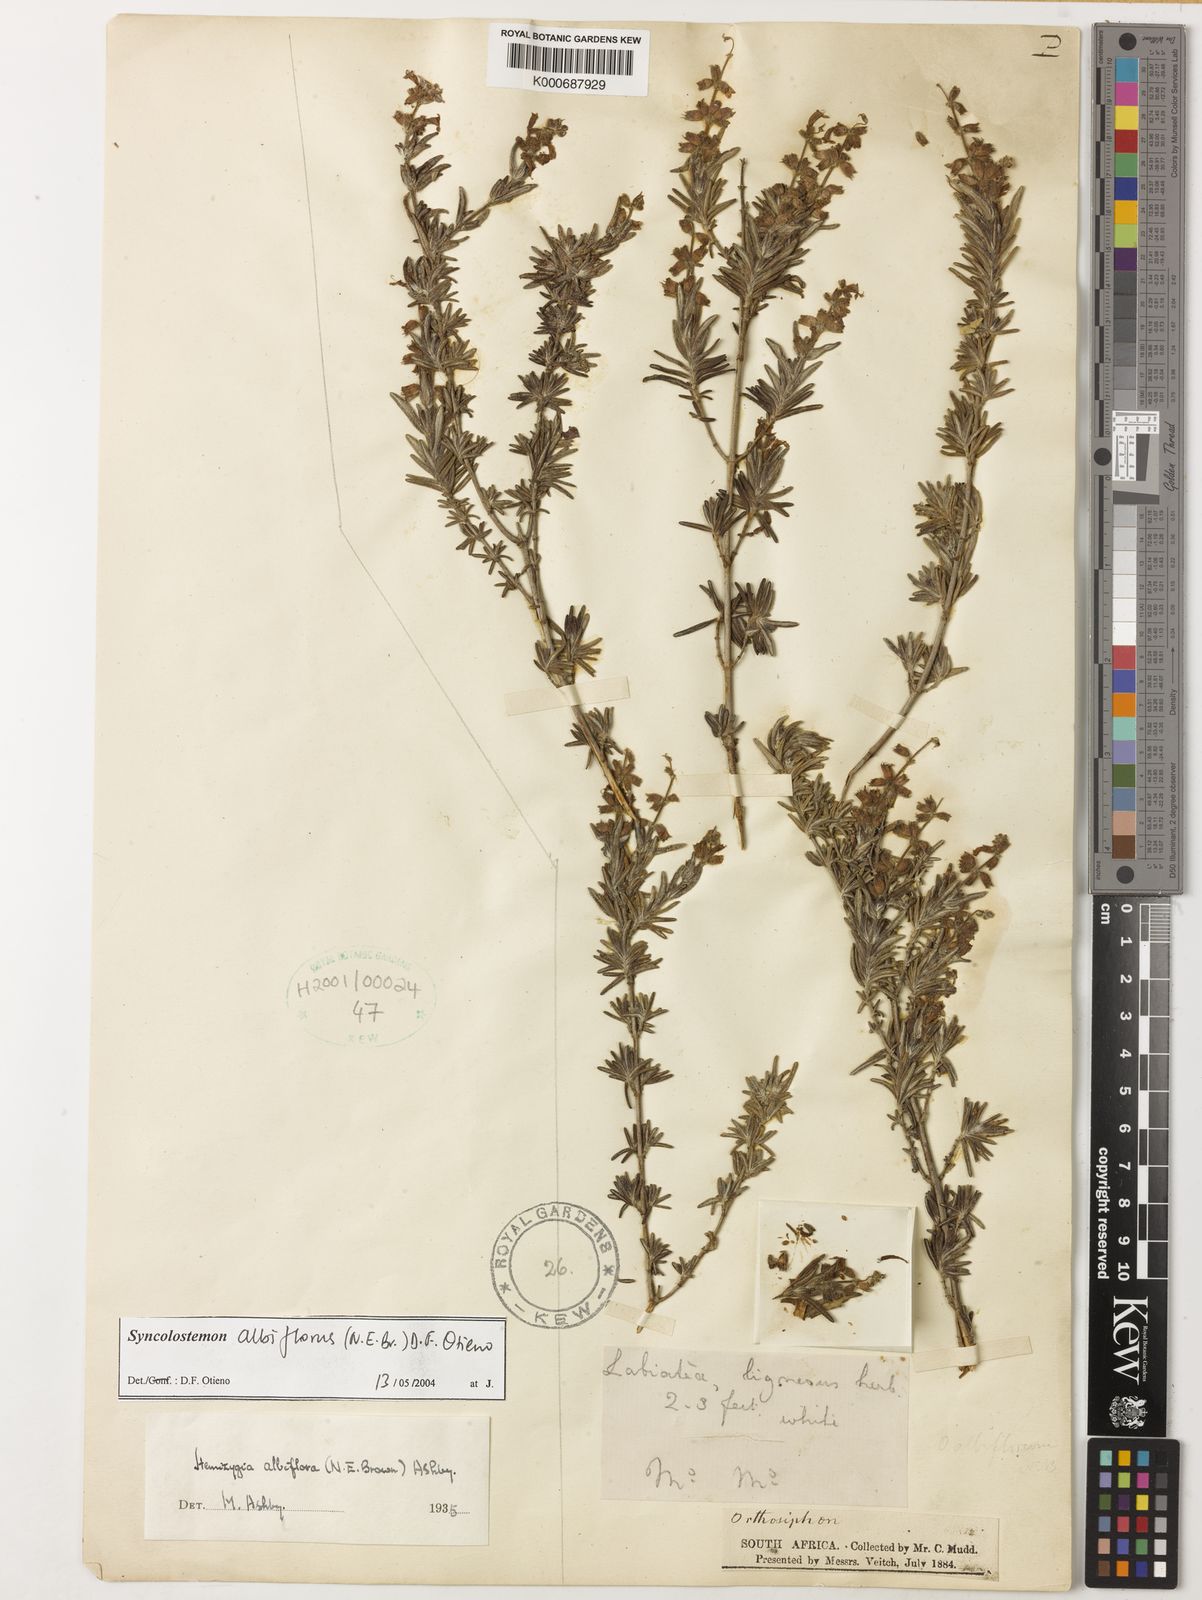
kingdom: Plantae
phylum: Tracheophyta
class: Magnoliopsida
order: Lamiales
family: Lamiaceae
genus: Syncolostemon
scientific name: Syncolostemon albiflorus
